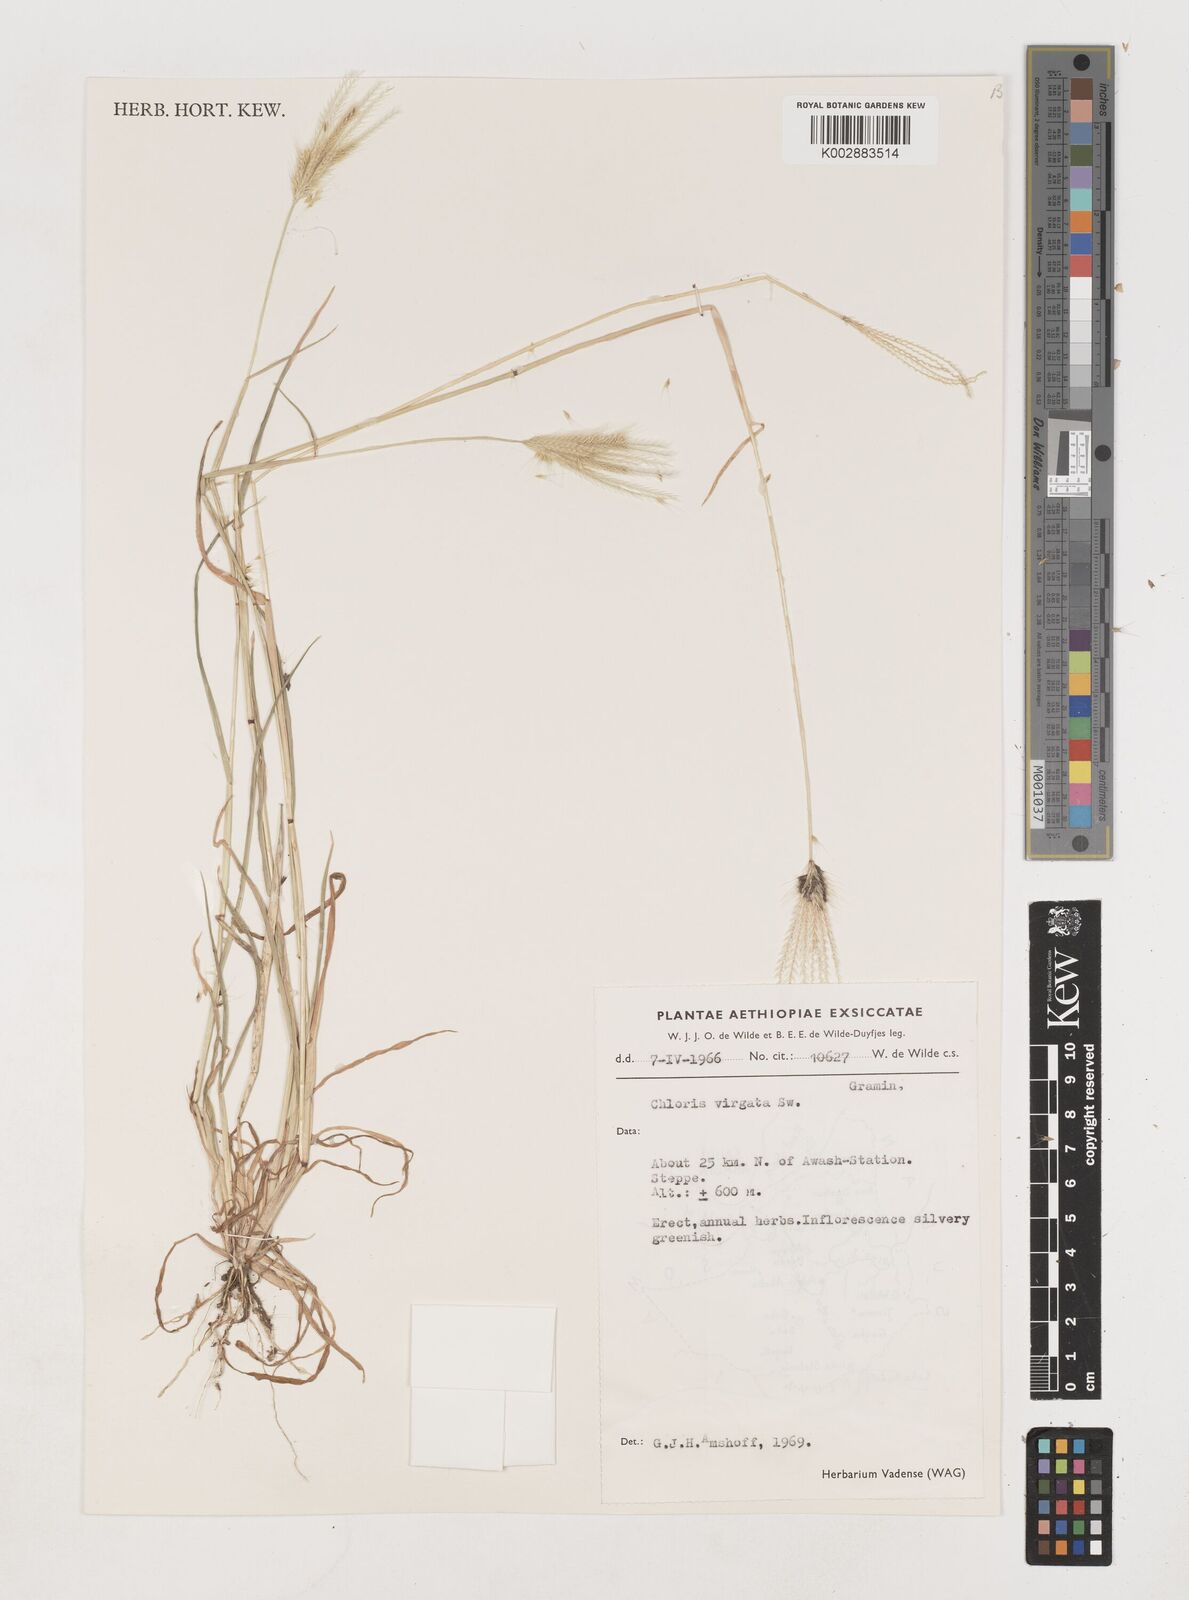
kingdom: Plantae
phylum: Tracheophyta
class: Liliopsida
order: Poales
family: Poaceae
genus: Chloris
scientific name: Chloris virgata
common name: Feathery rhodes-grass
